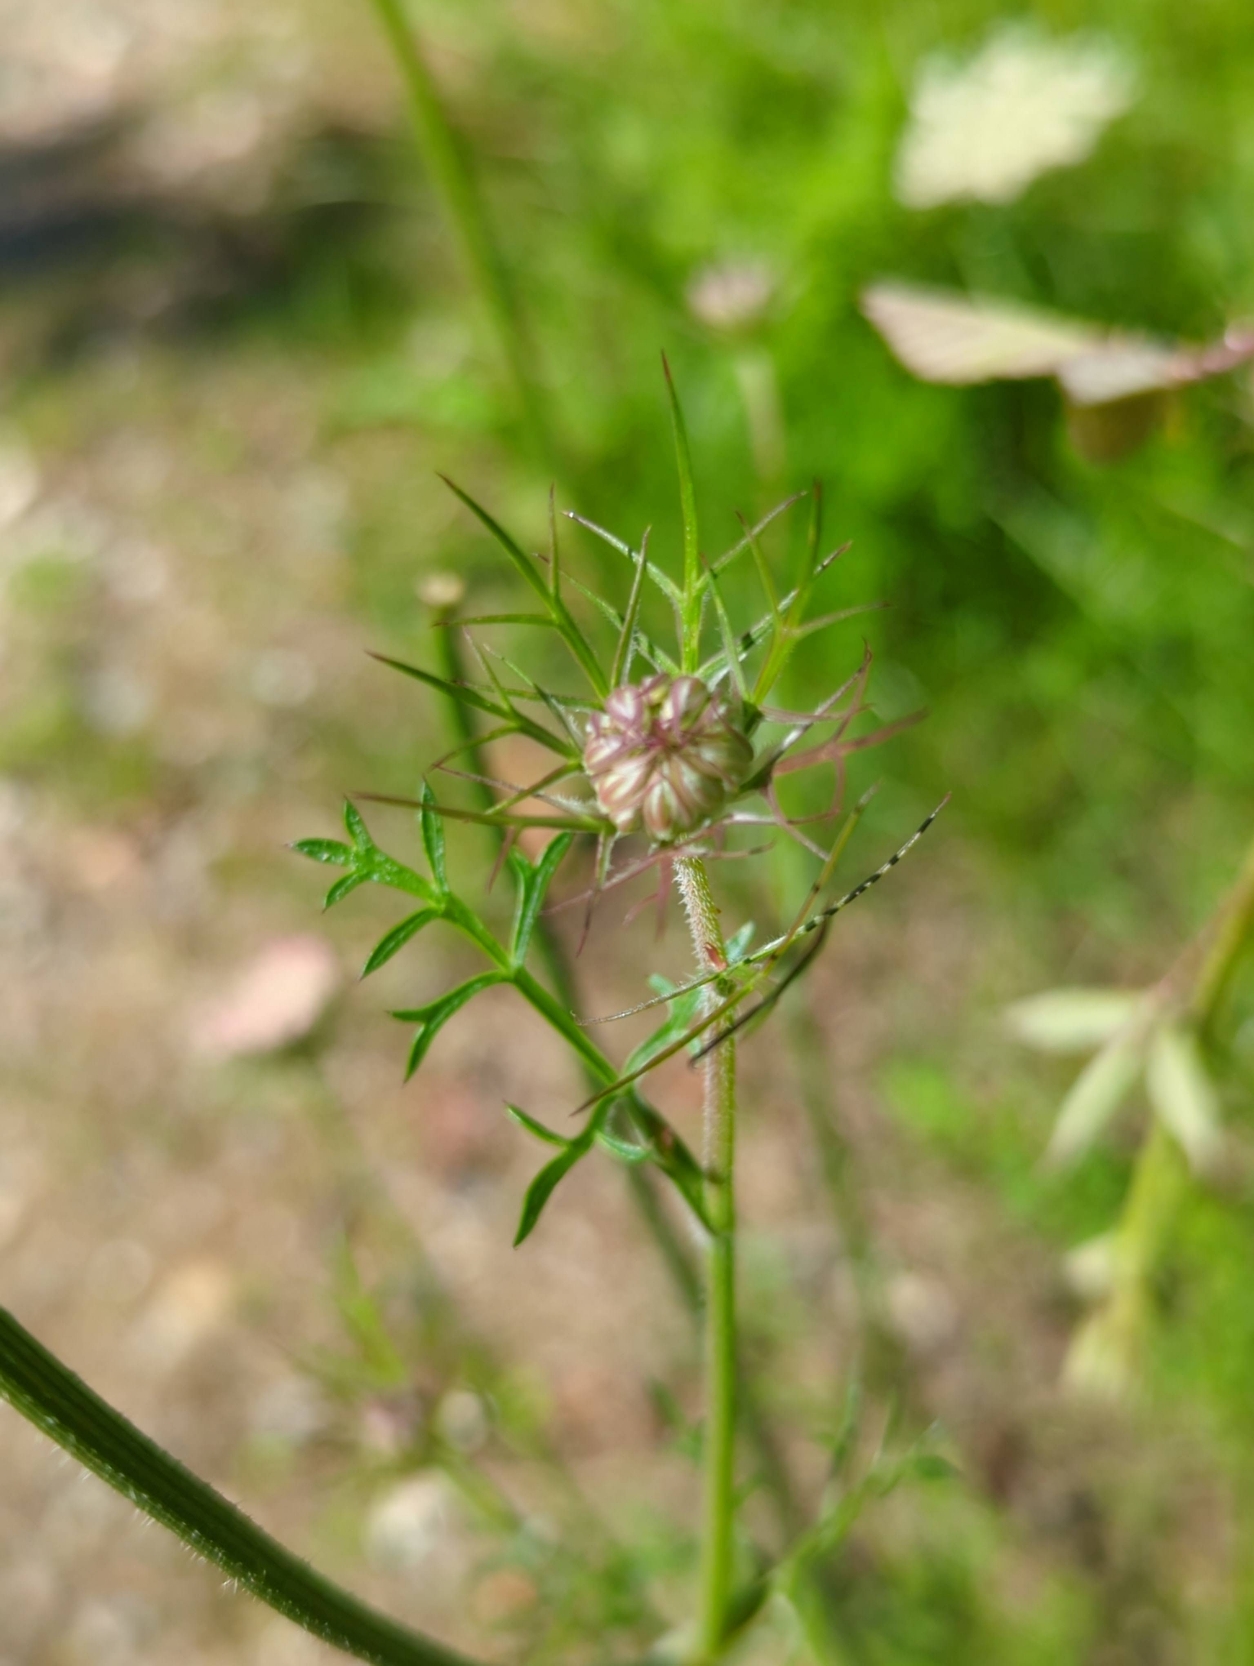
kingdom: Plantae
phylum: Tracheophyta
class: Magnoliopsida
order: Apiales
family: Apiaceae
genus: Daucus
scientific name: Daucus carota
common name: Gulerod
